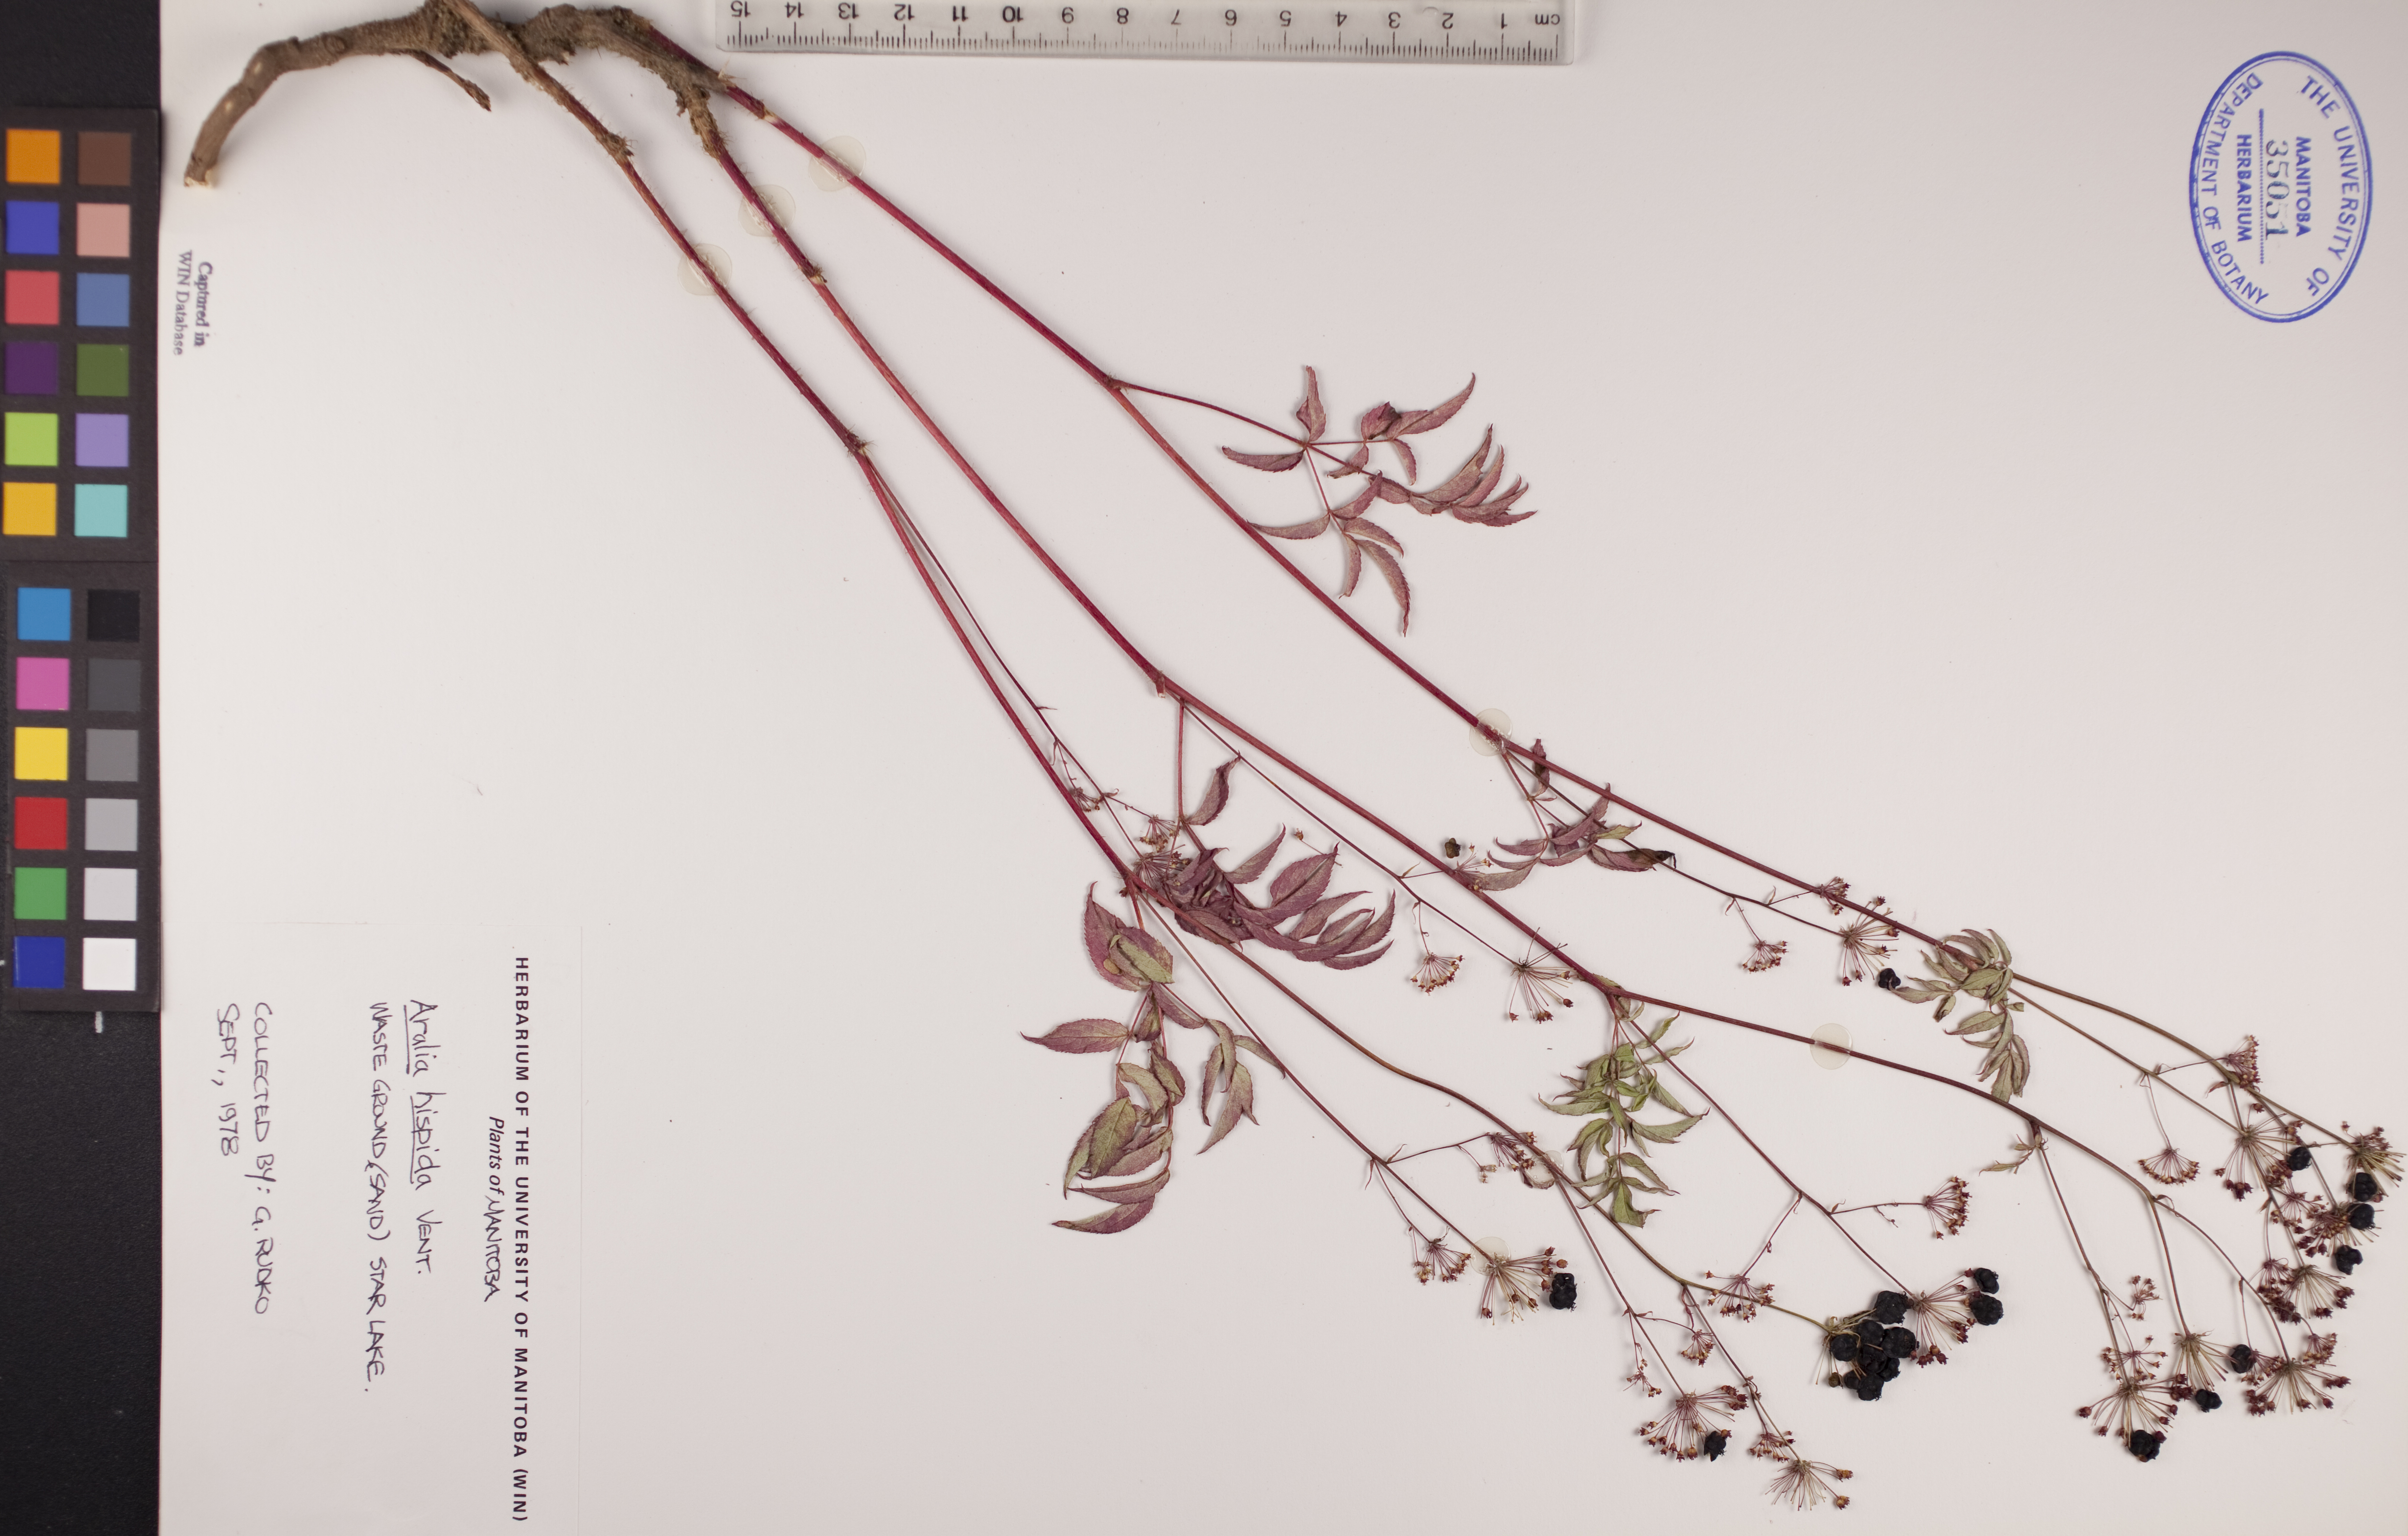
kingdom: Plantae
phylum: Tracheophyta
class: Magnoliopsida
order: Apiales
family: Araliaceae
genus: Aralia
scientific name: Aralia hispida
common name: Bristly sarsaparilla
